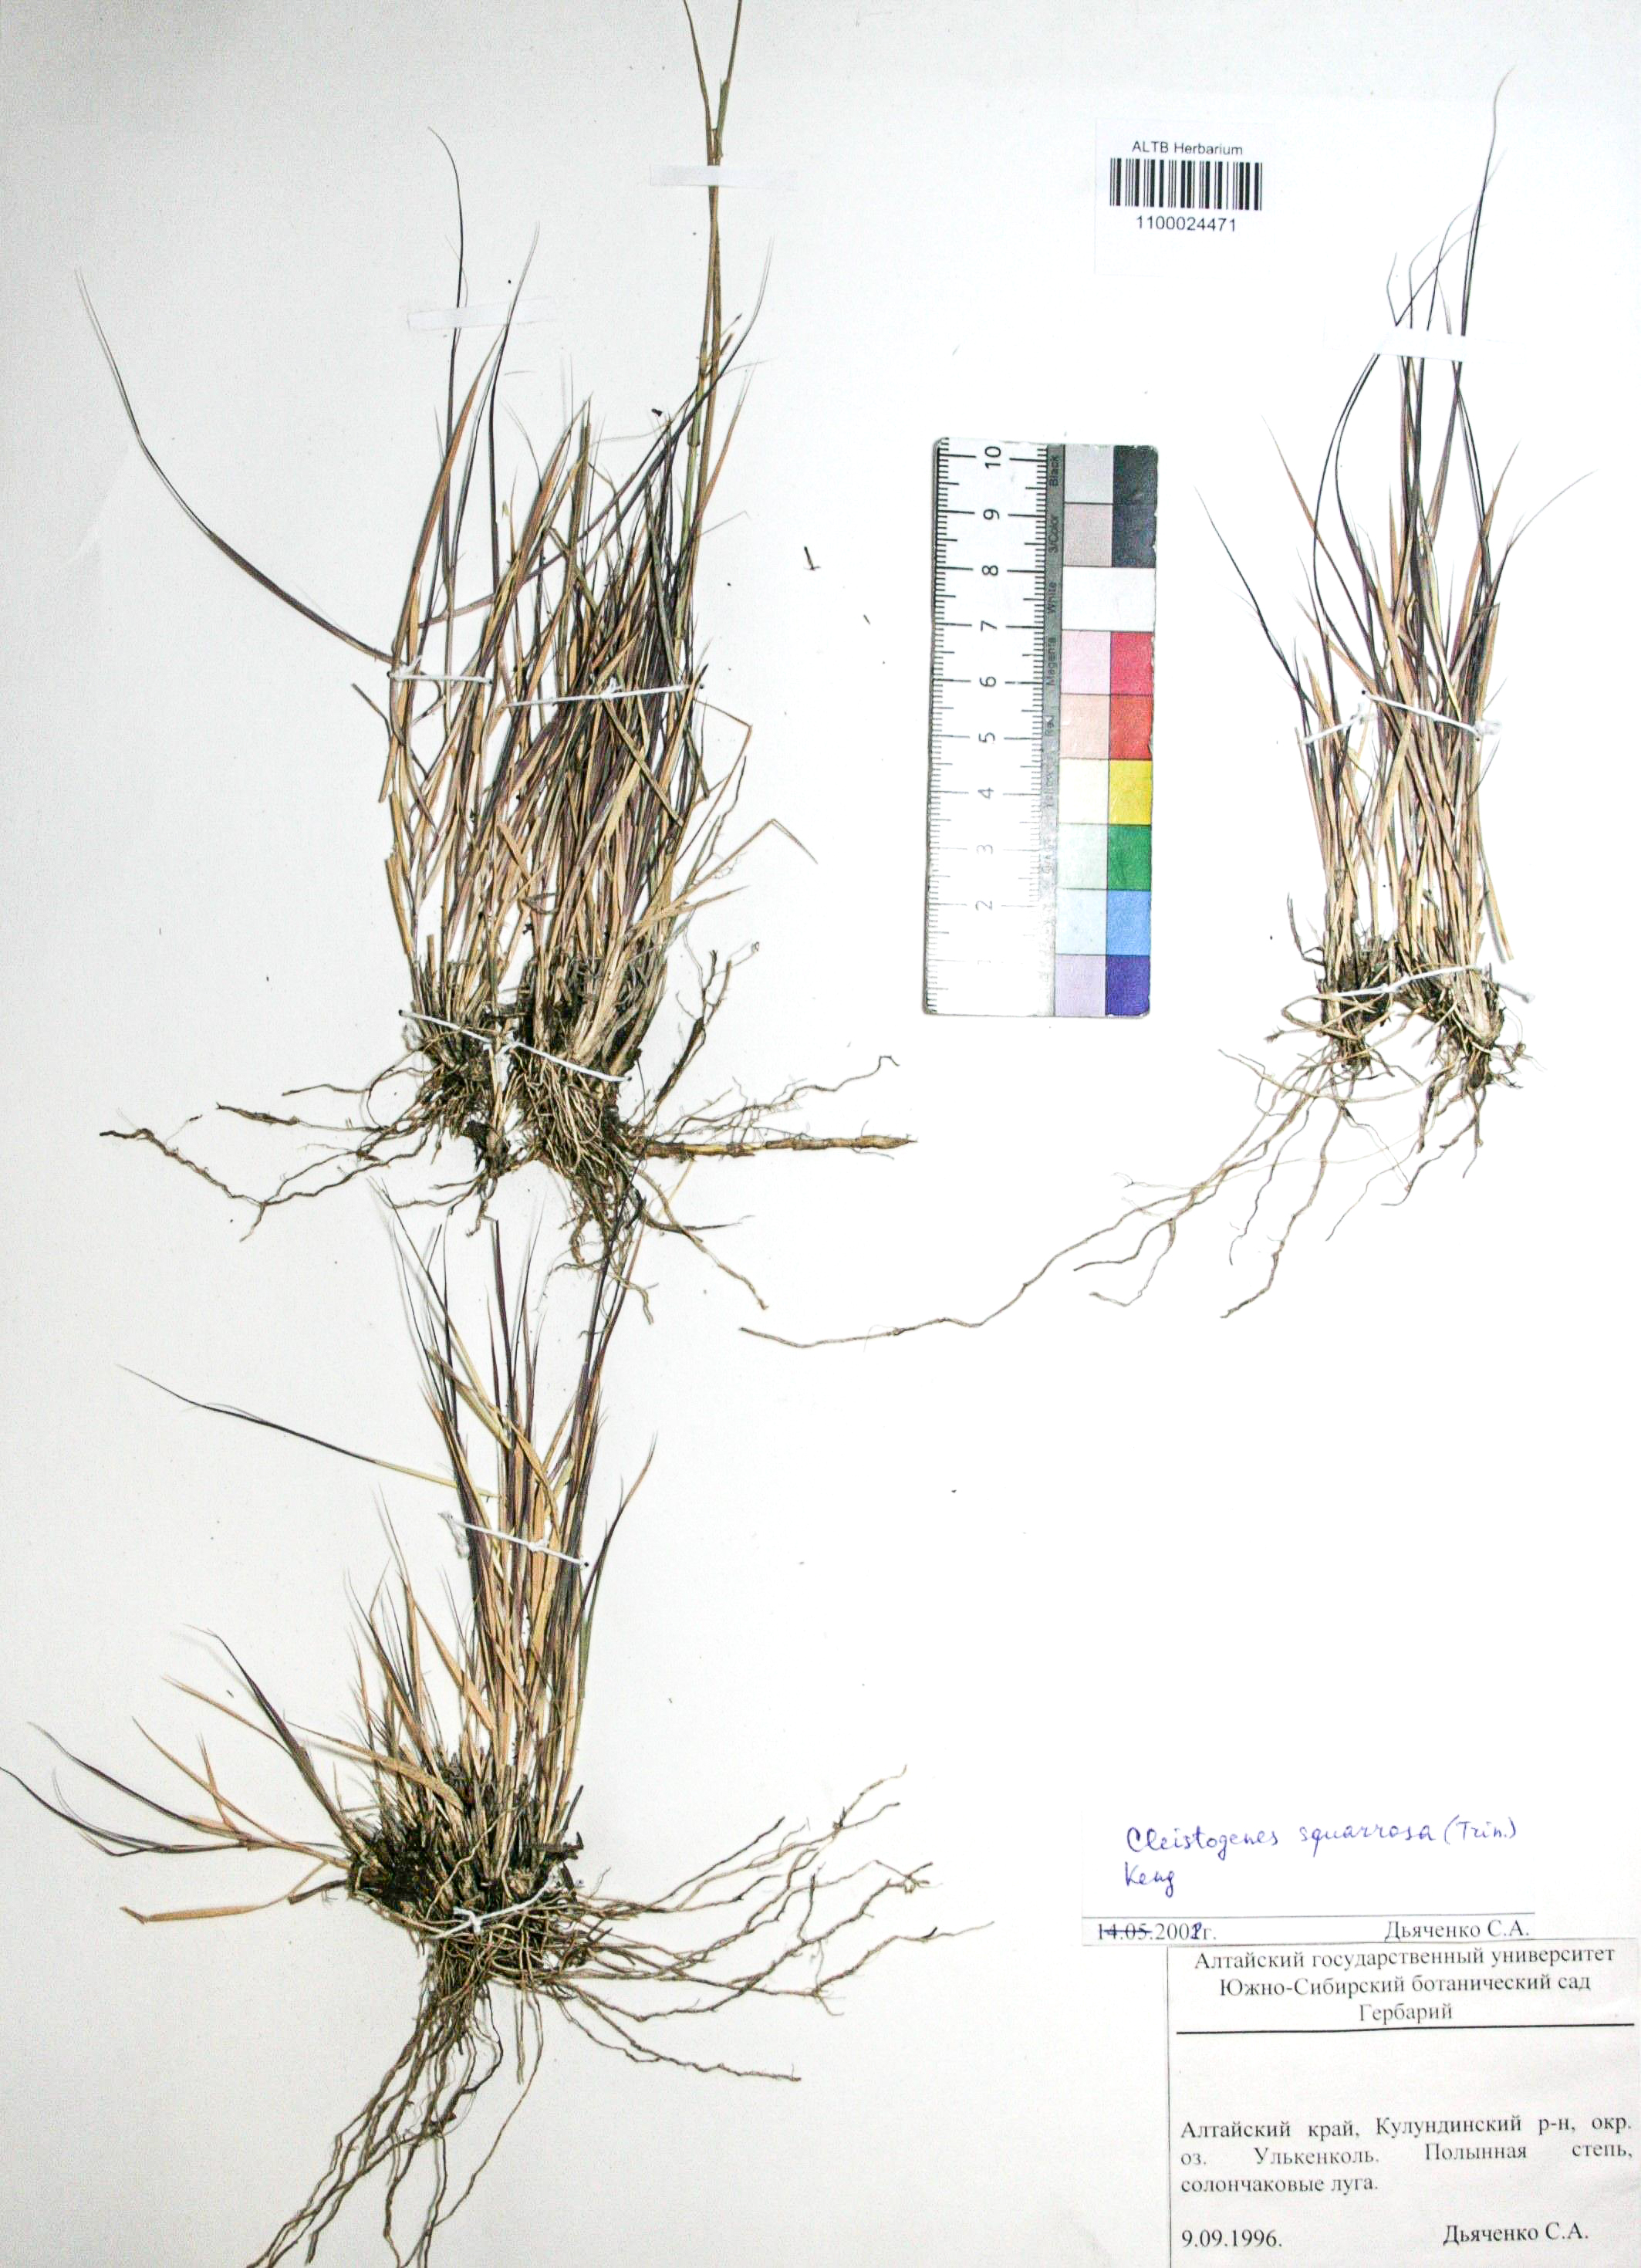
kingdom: Plantae
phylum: Tracheophyta
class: Liliopsida
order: Poales
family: Poaceae
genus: Cleistogenes
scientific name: Cleistogenes squarrosa
